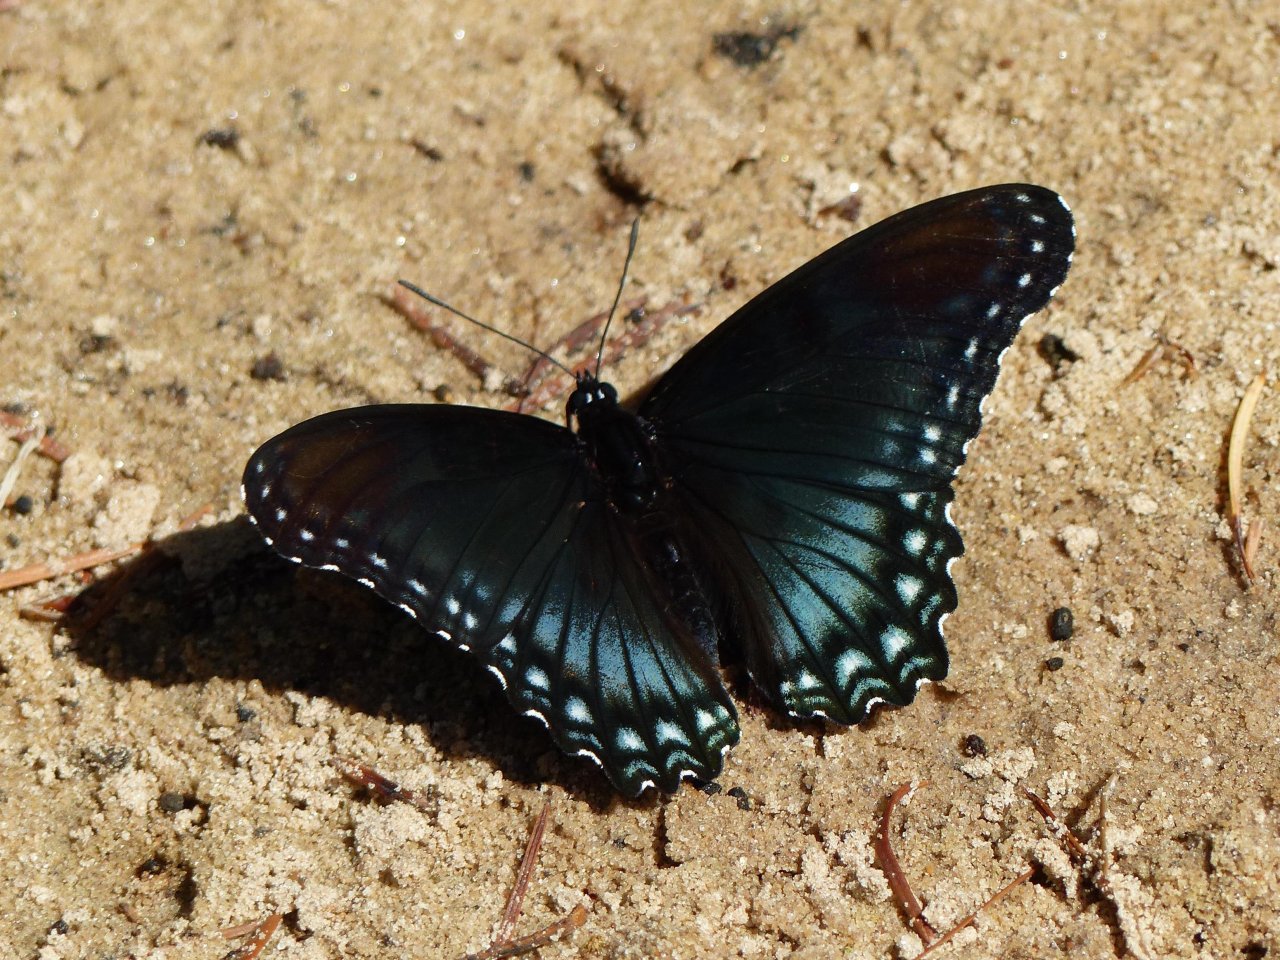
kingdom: Animalia
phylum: Arthropoda
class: Insecta
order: Lepidoptera
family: Nymphalidae
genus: Limenitis
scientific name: Limenitis astyanax
